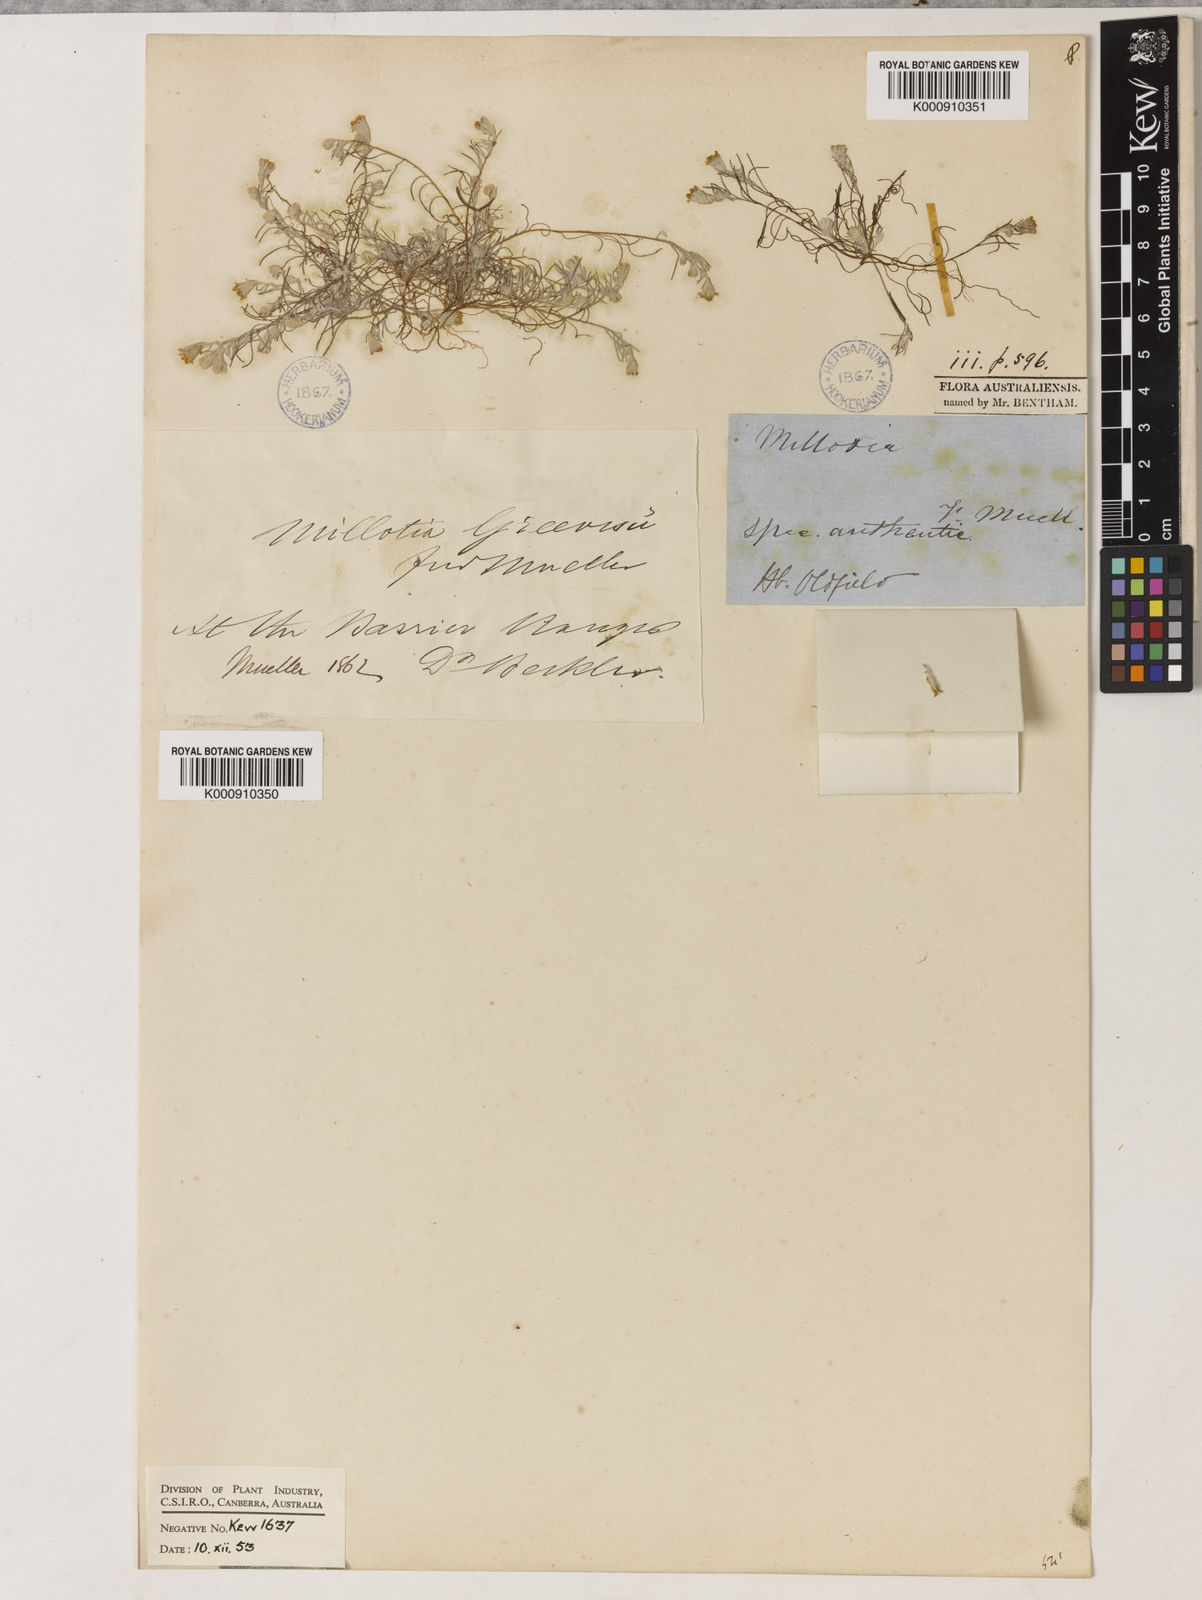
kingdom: Plantae
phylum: Tracheophyta
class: Magnoliopsida
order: Asterales
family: Asteraceae
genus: Millotia
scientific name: Millotia greevesii
